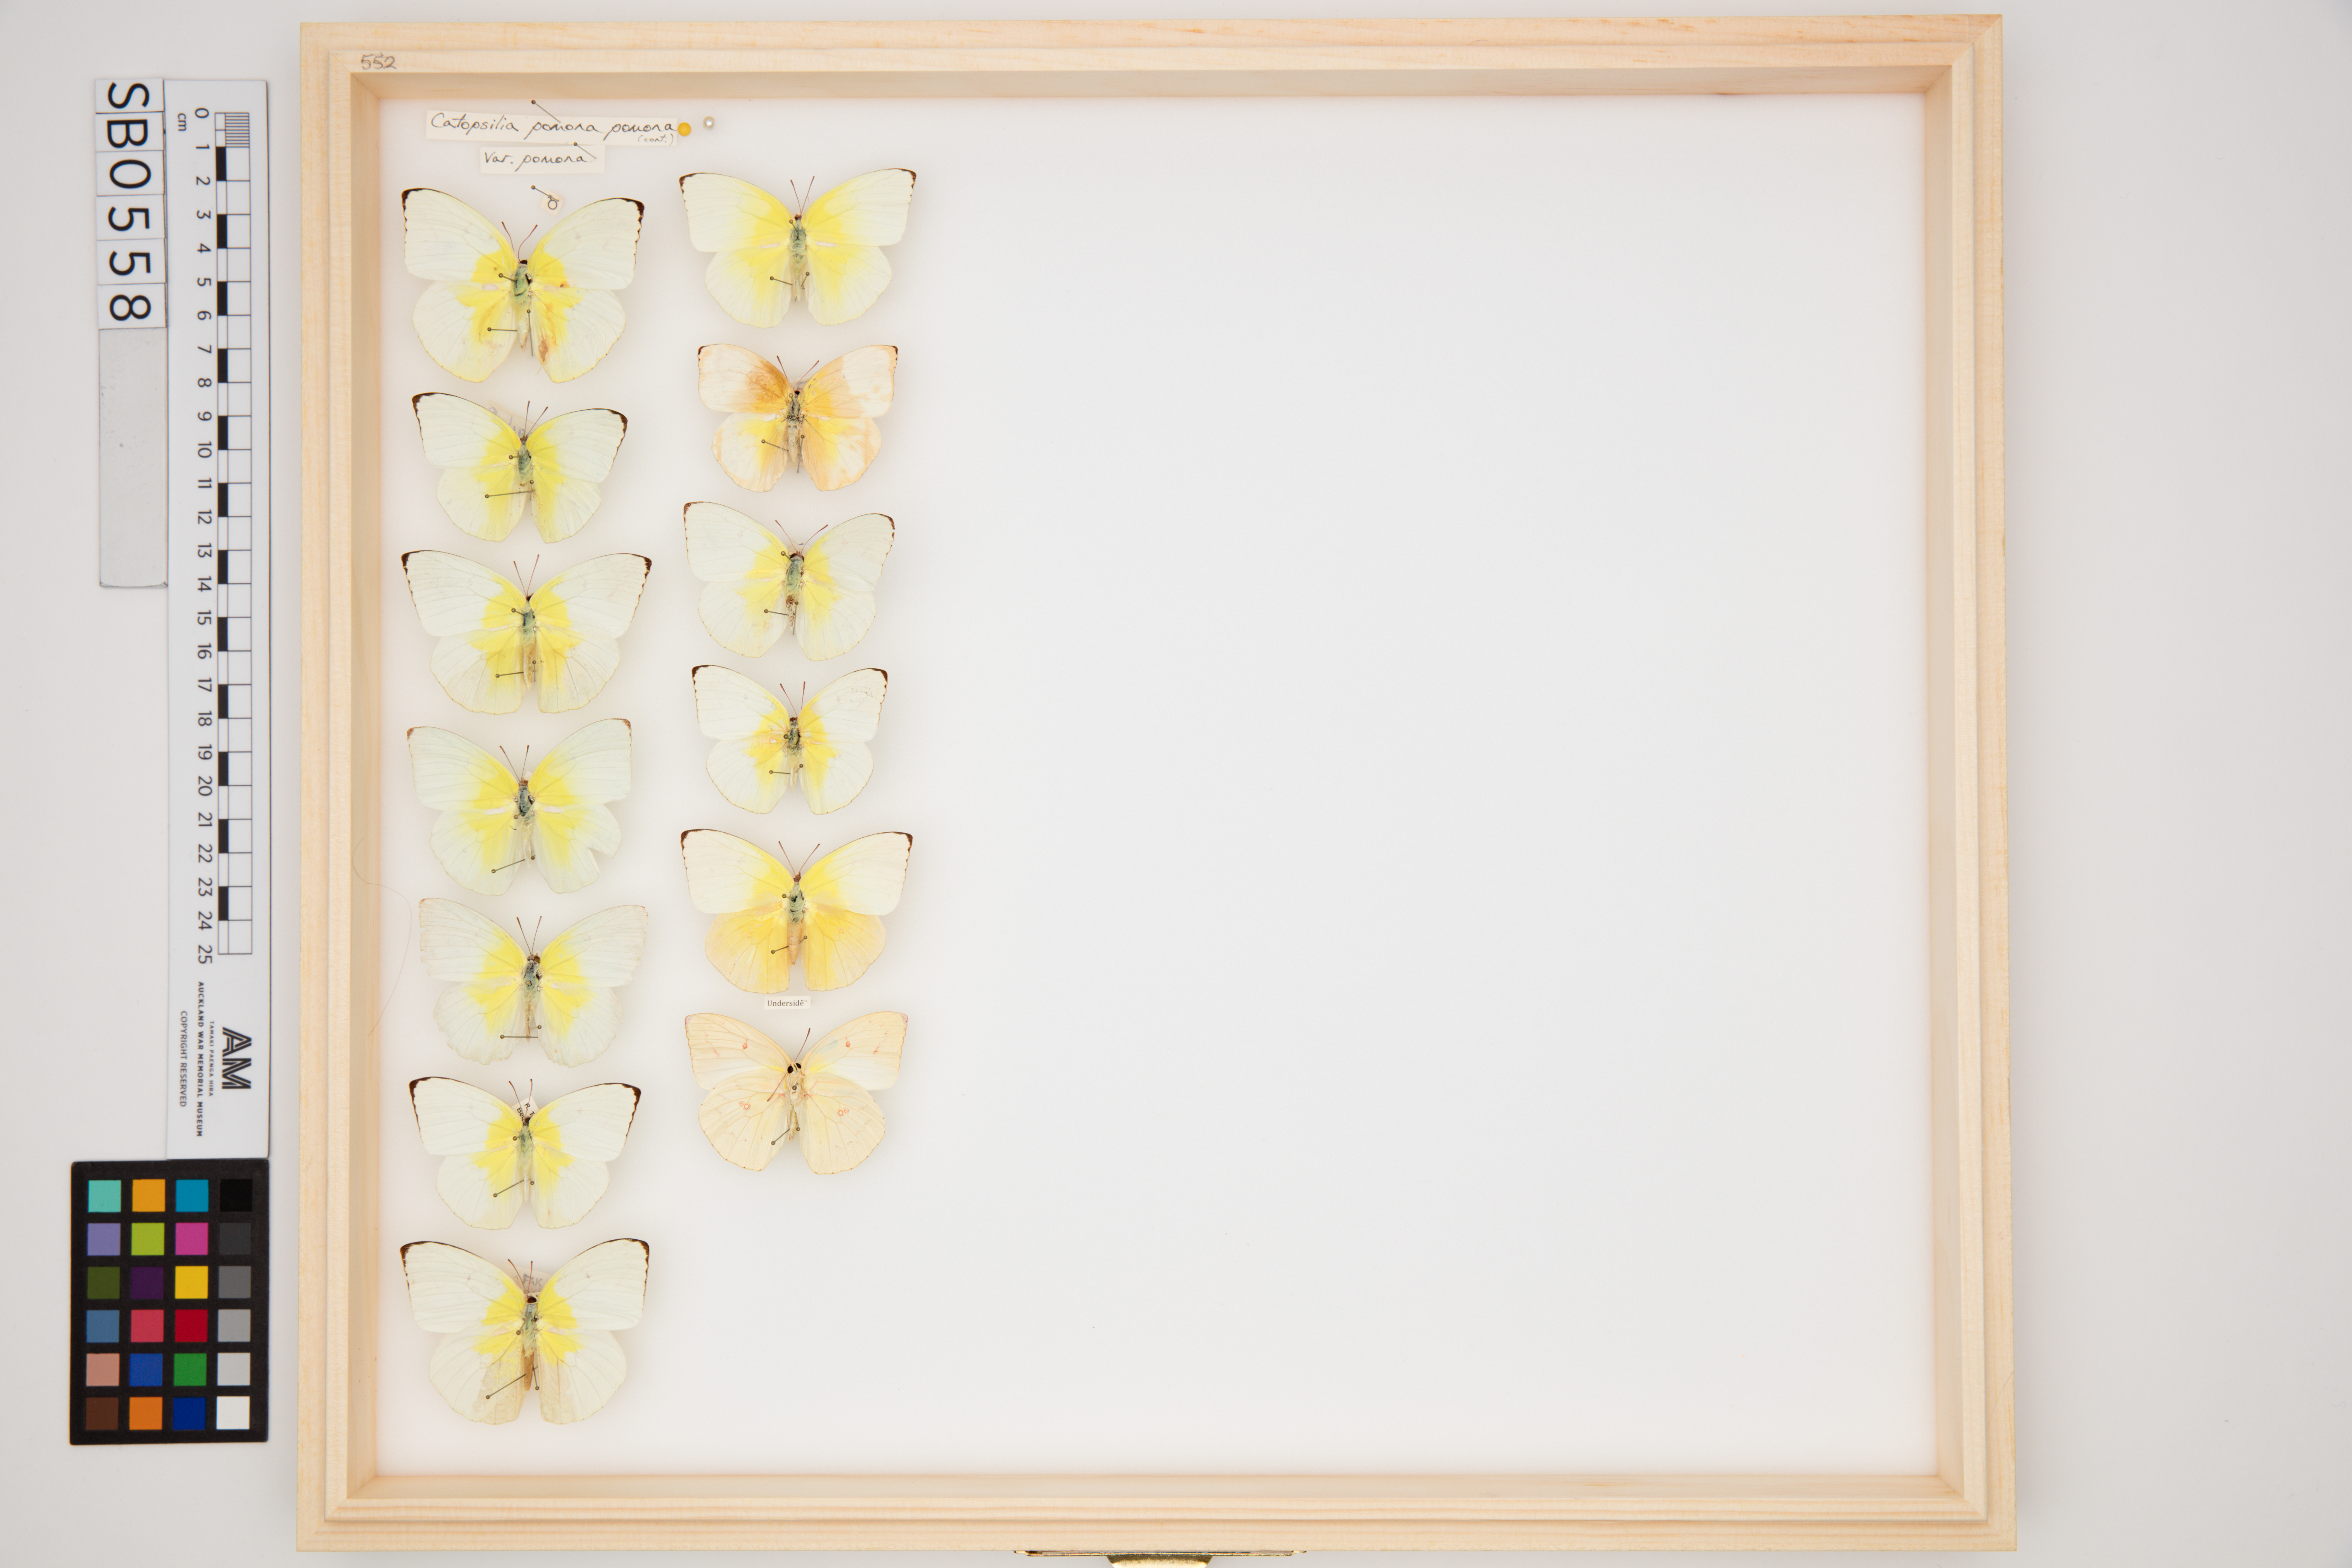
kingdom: Animalia
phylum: Arthropoda
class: Insecta
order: Lepidoptera
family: Pieridae
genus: Catopsilia
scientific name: Catopsilia pomona
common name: Common emigrant
